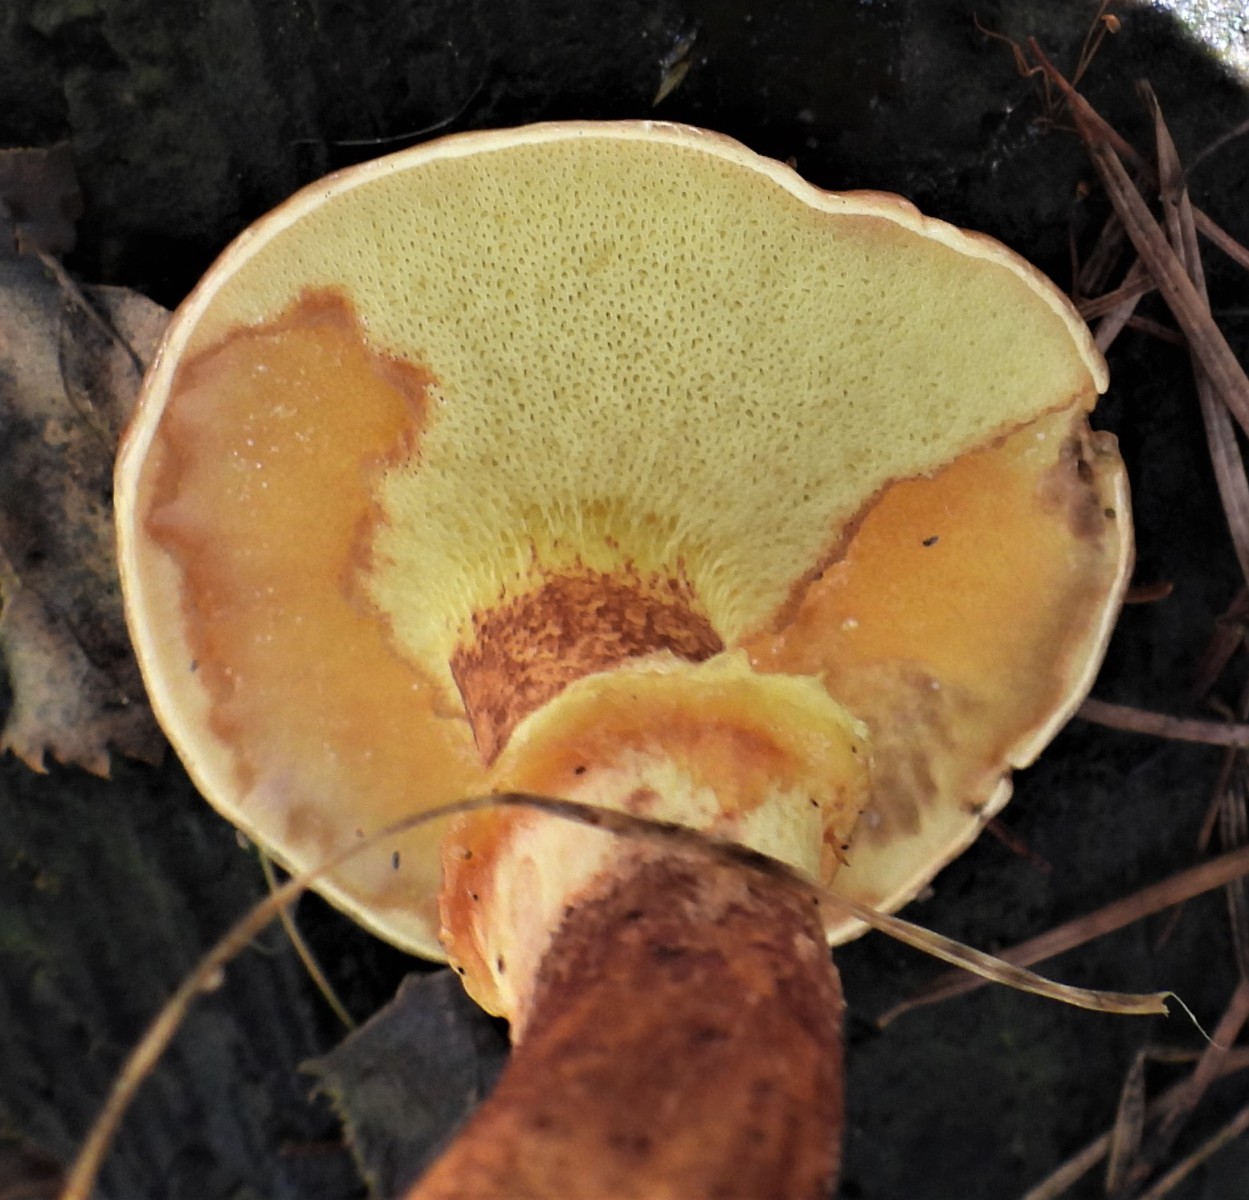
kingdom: Fungi
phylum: Basidiomycota
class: Agaricomycetes
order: Boletales
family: Suillaceae
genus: Suillus
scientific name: Suillus grevillei
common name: lærke-slimrørhat
